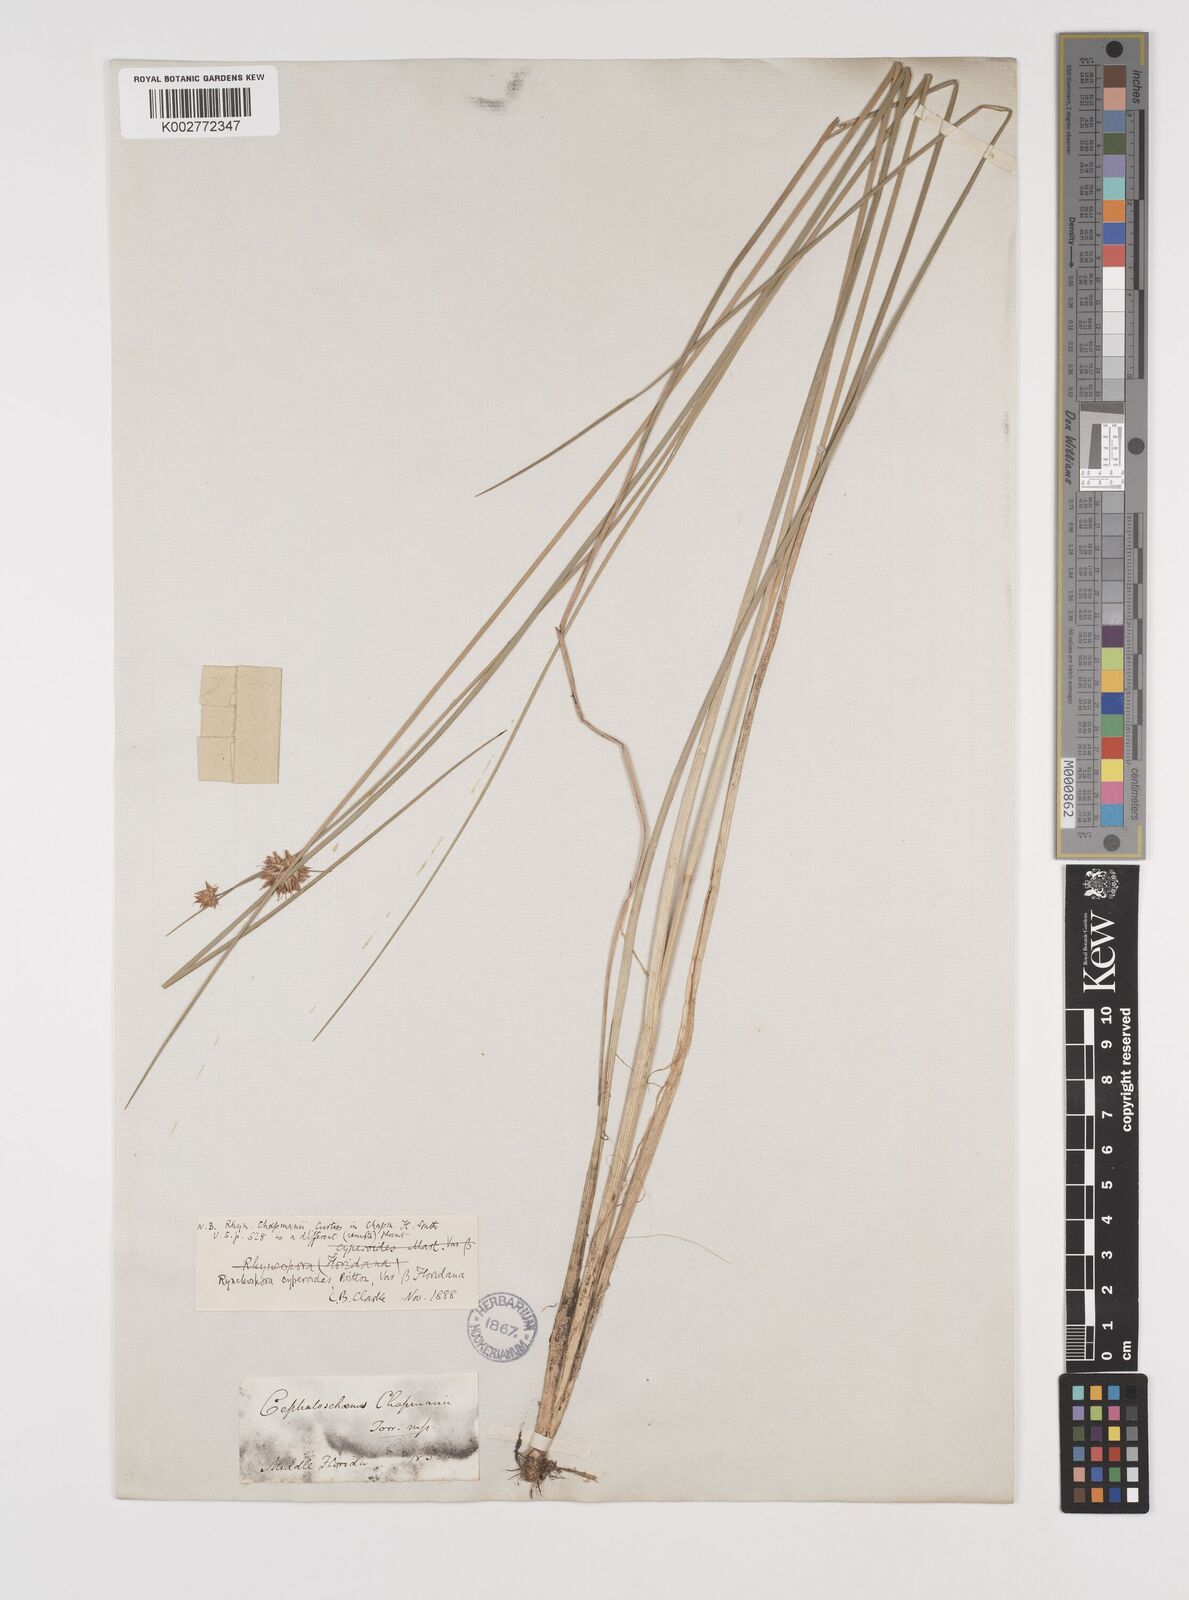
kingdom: Plantae
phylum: Tracheophyta
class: Liliopsida
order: Poales
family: Cyperaceae
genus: Rhynchospora
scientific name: Rhynchospora holoschoenoides
